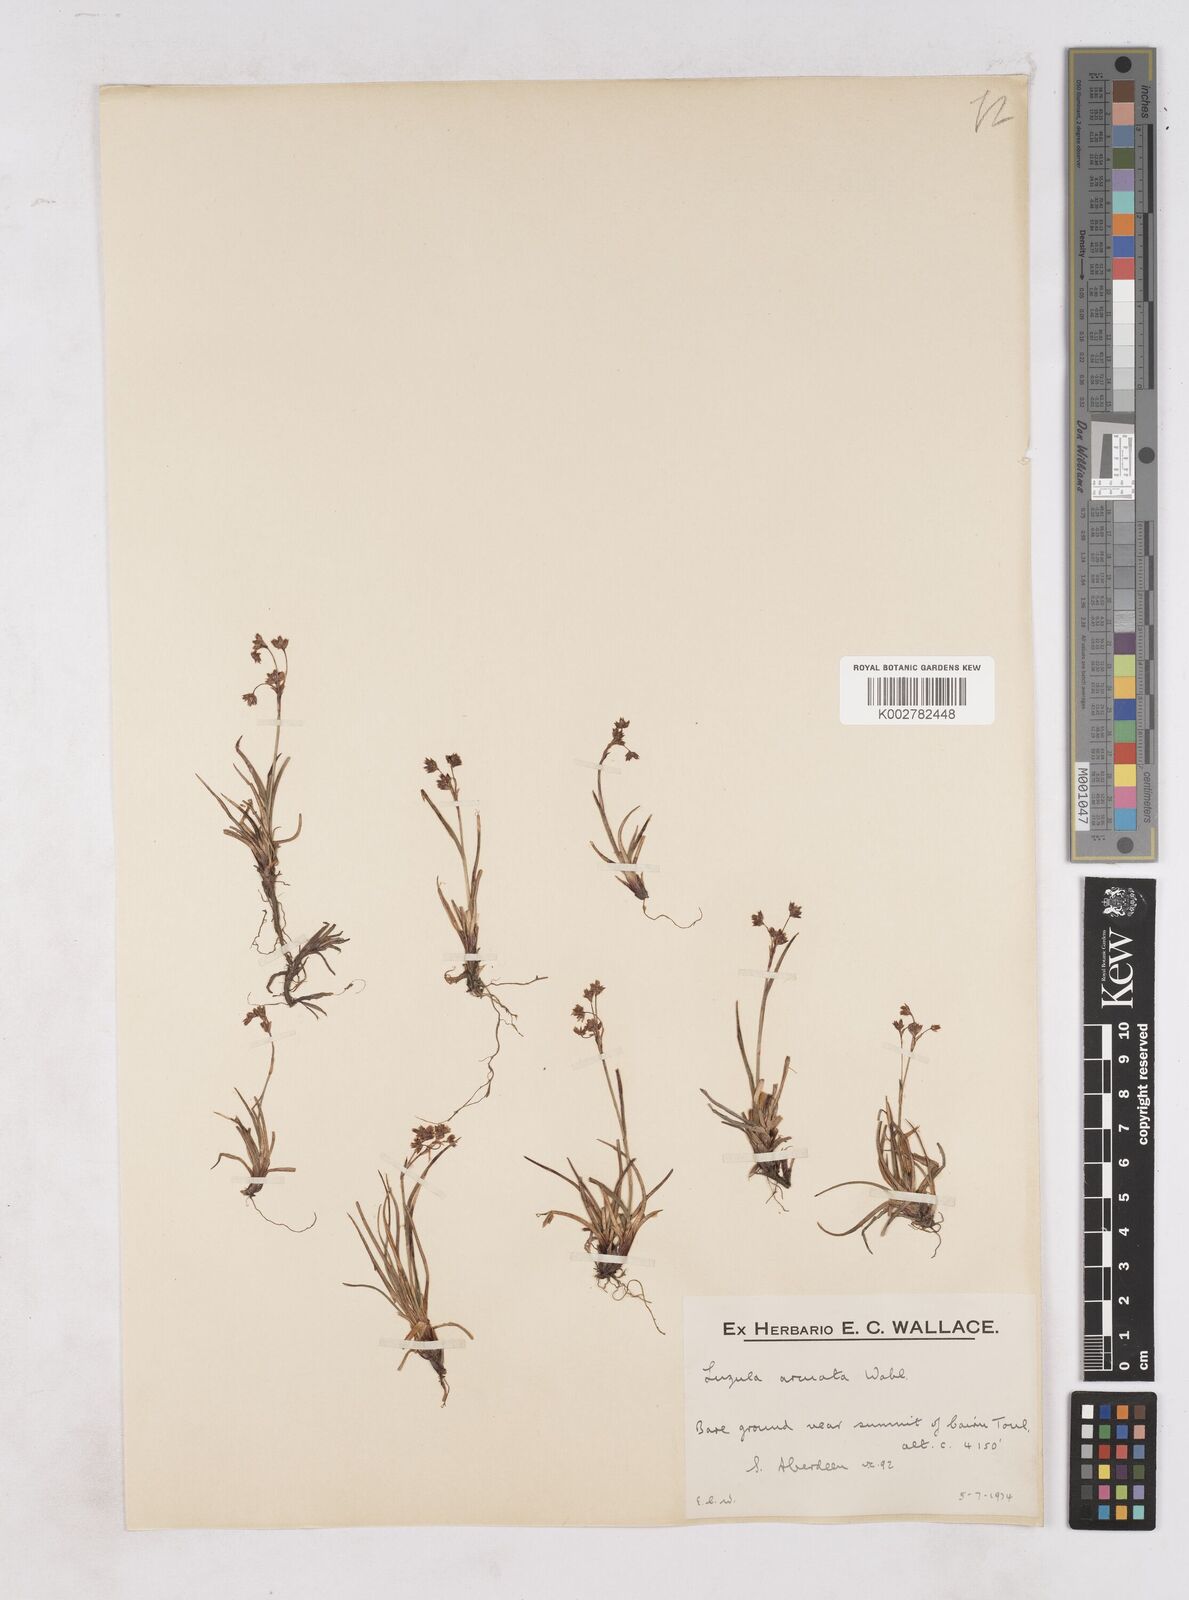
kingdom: Plantae
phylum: Tracheophyta
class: Liliopsida
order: Poales
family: Juncaceae
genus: Luzula
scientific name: Luzula arcuata
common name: Curved wood-rush
